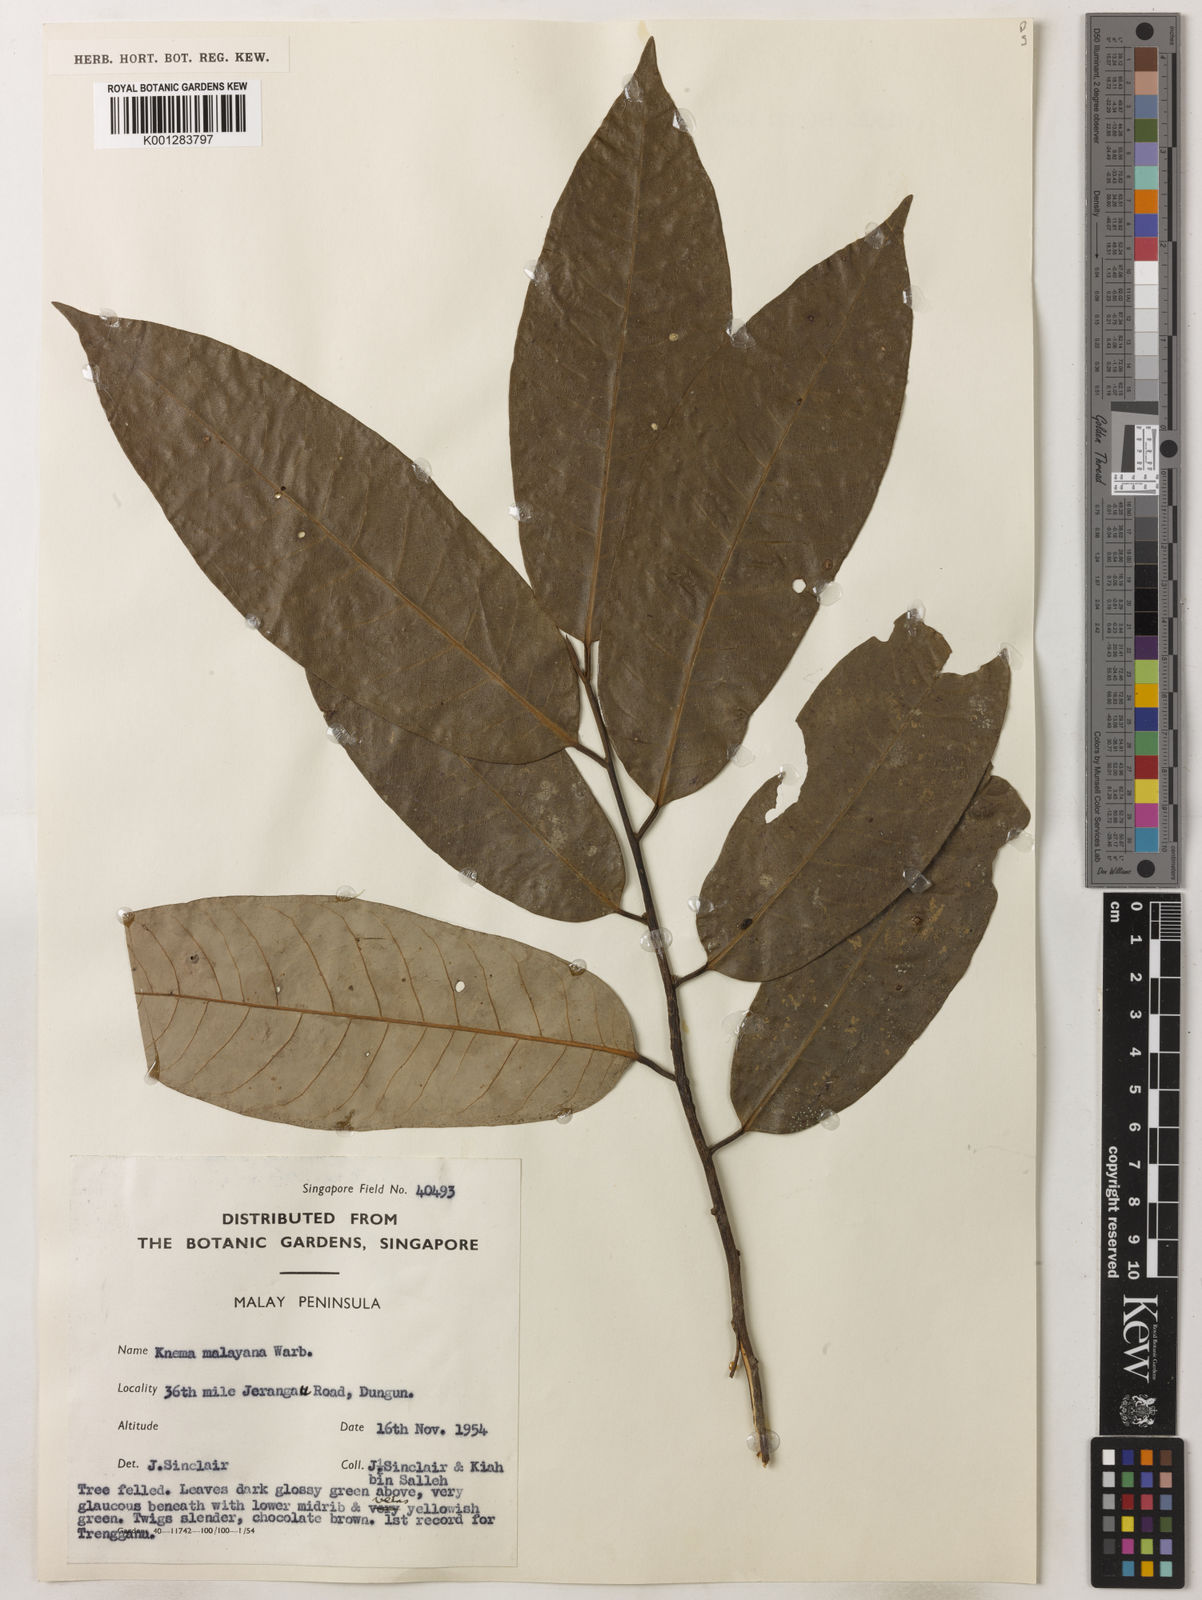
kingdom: Plantae
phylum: Tracheophyta
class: Magnoliopsida
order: Magnoliales
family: Myristicaceae
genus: Knema
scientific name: Knema malayana
